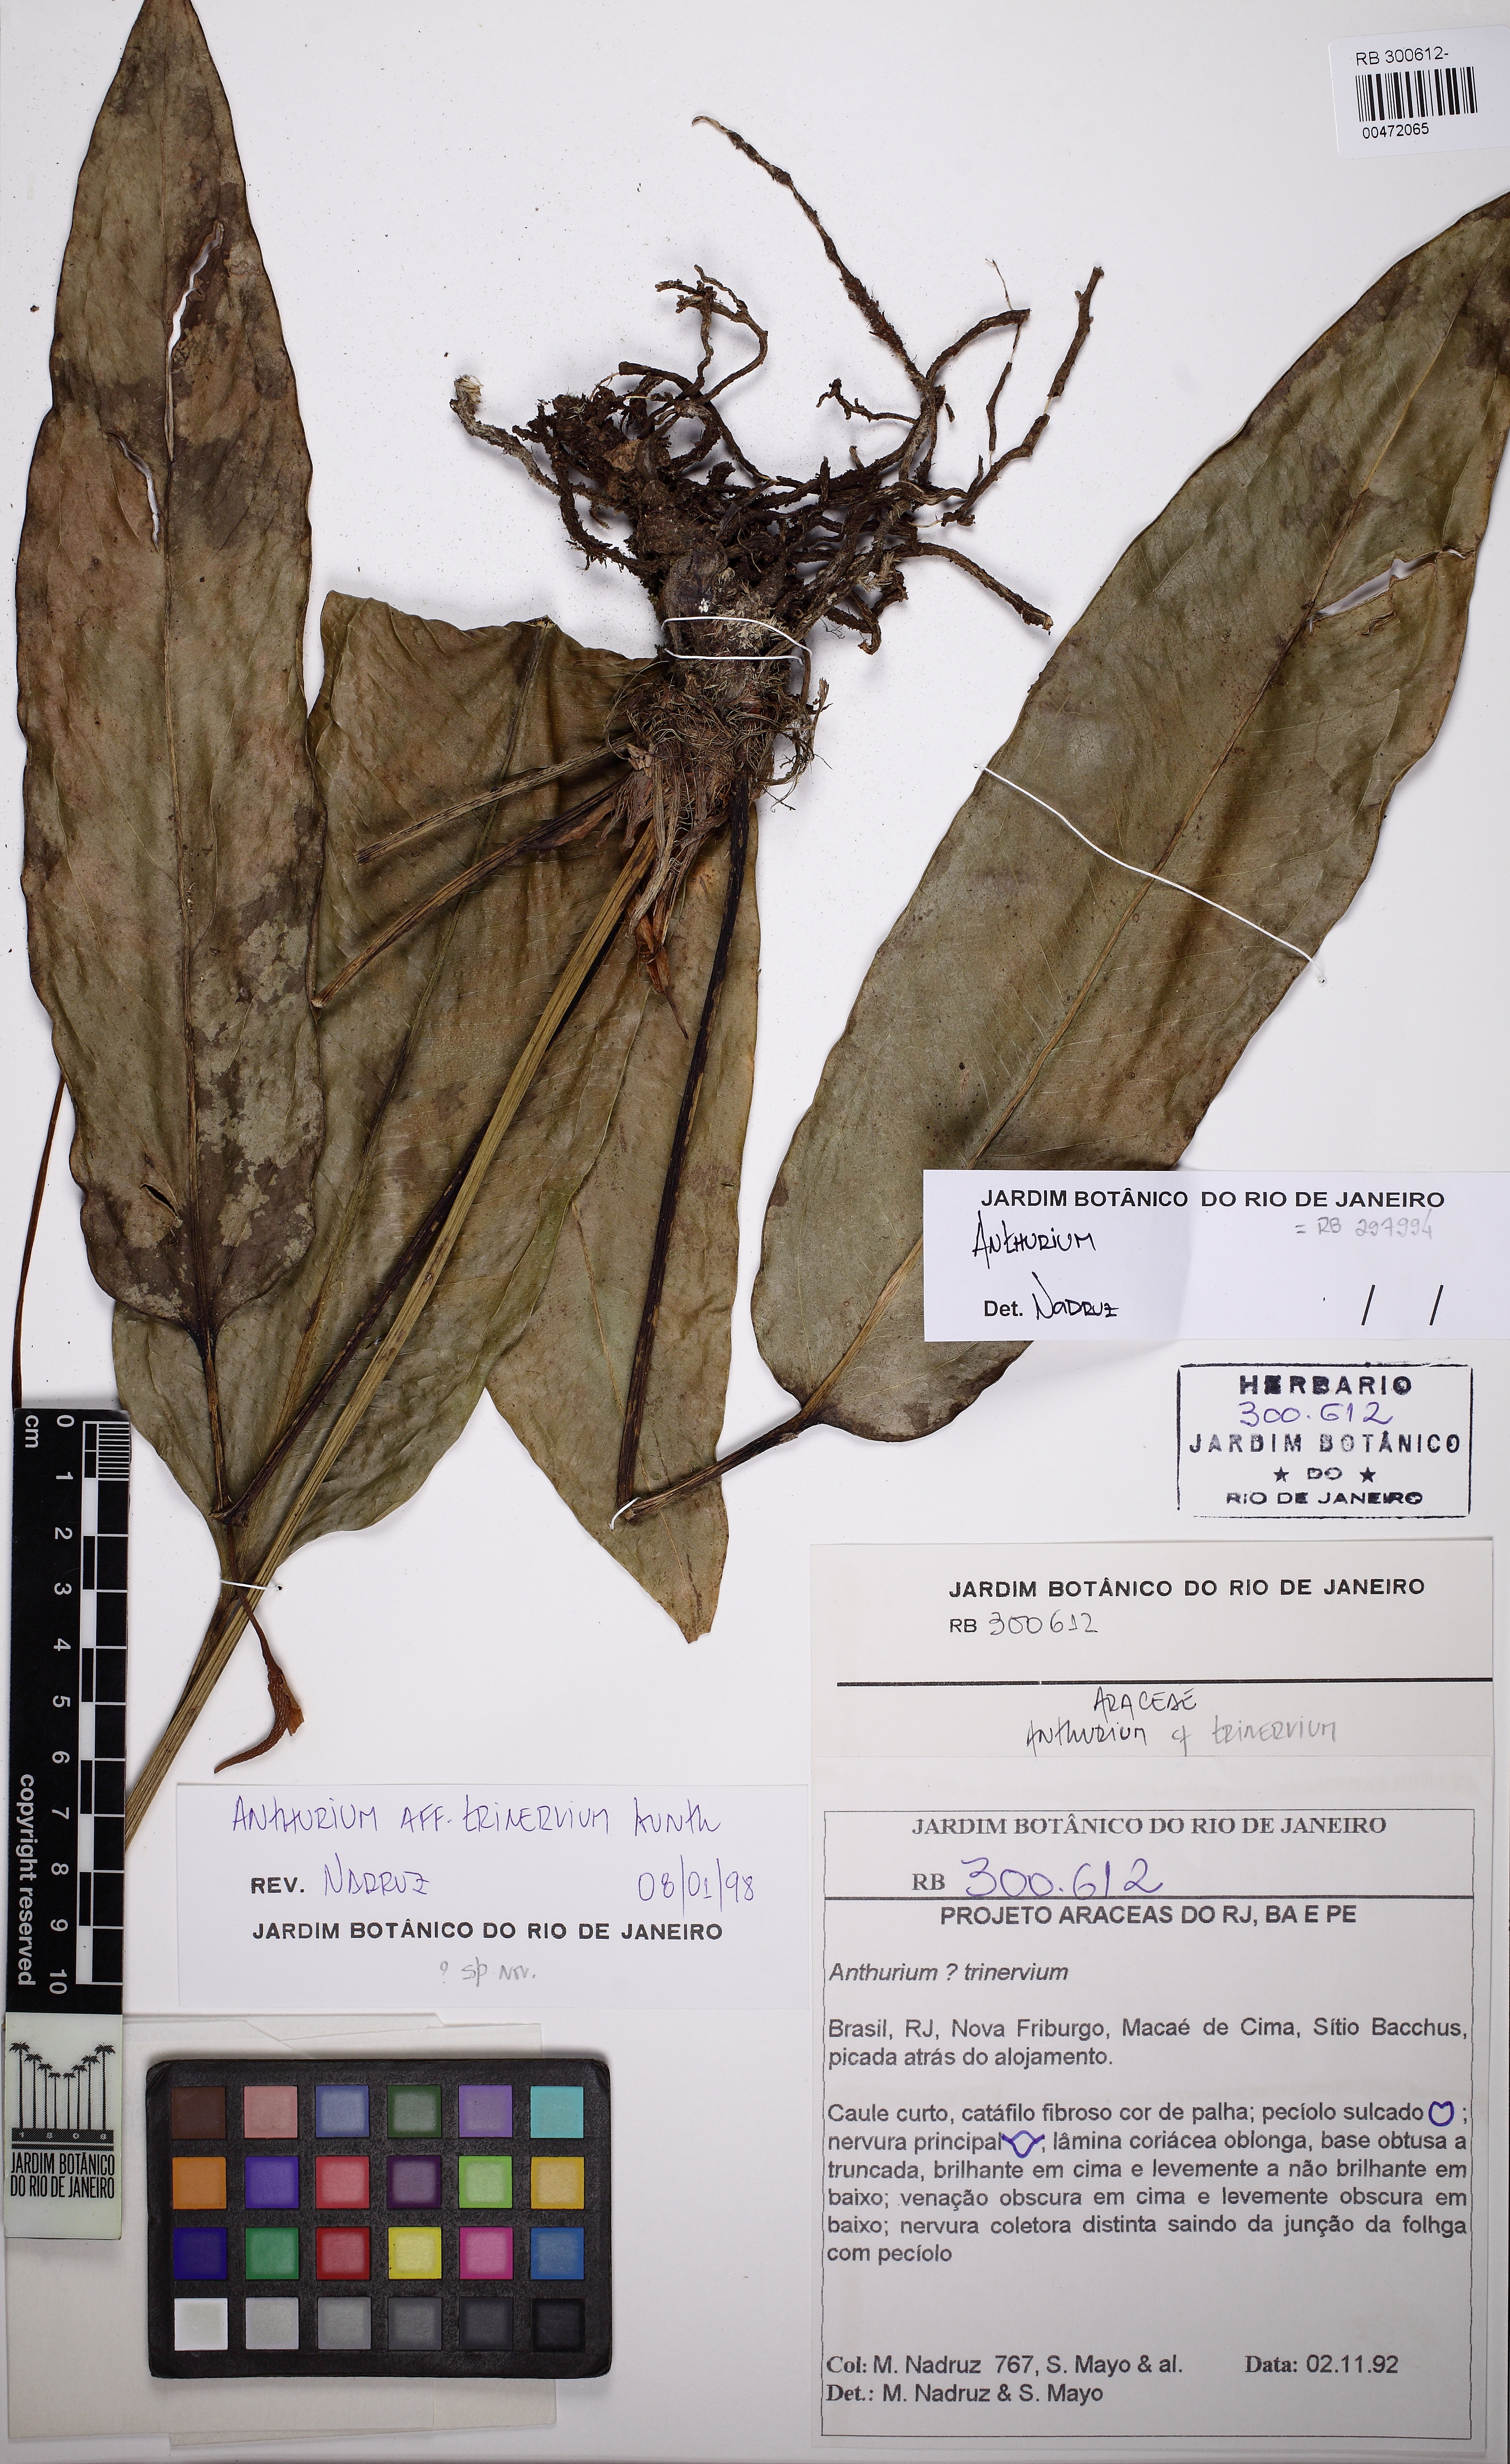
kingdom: Plantae
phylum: Tracheophyta
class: Liliopsida
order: Alismatales
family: Araceae
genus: Anthurium
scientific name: Anthurium trinervium
